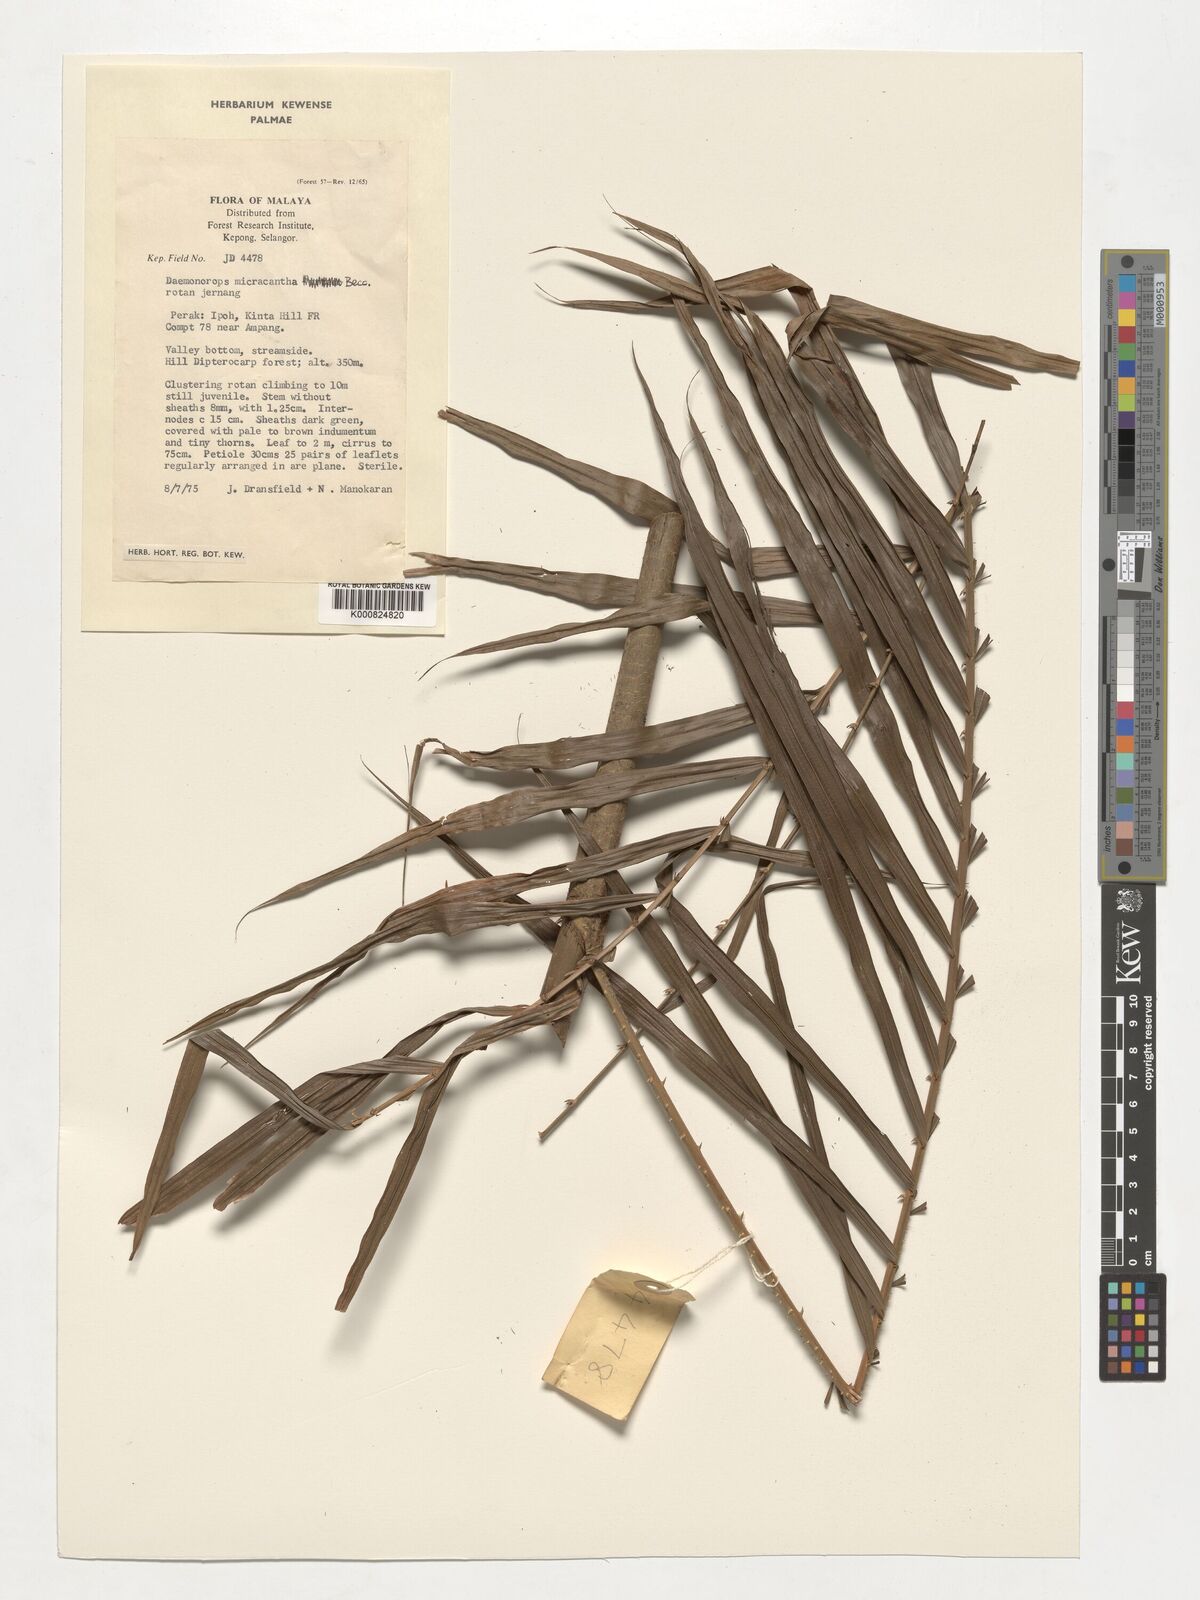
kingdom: Plantae
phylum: Tracheophyta
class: Liliopsida
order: Arecales
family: Arecaceae
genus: Calamus
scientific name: Calamus micracanthus
